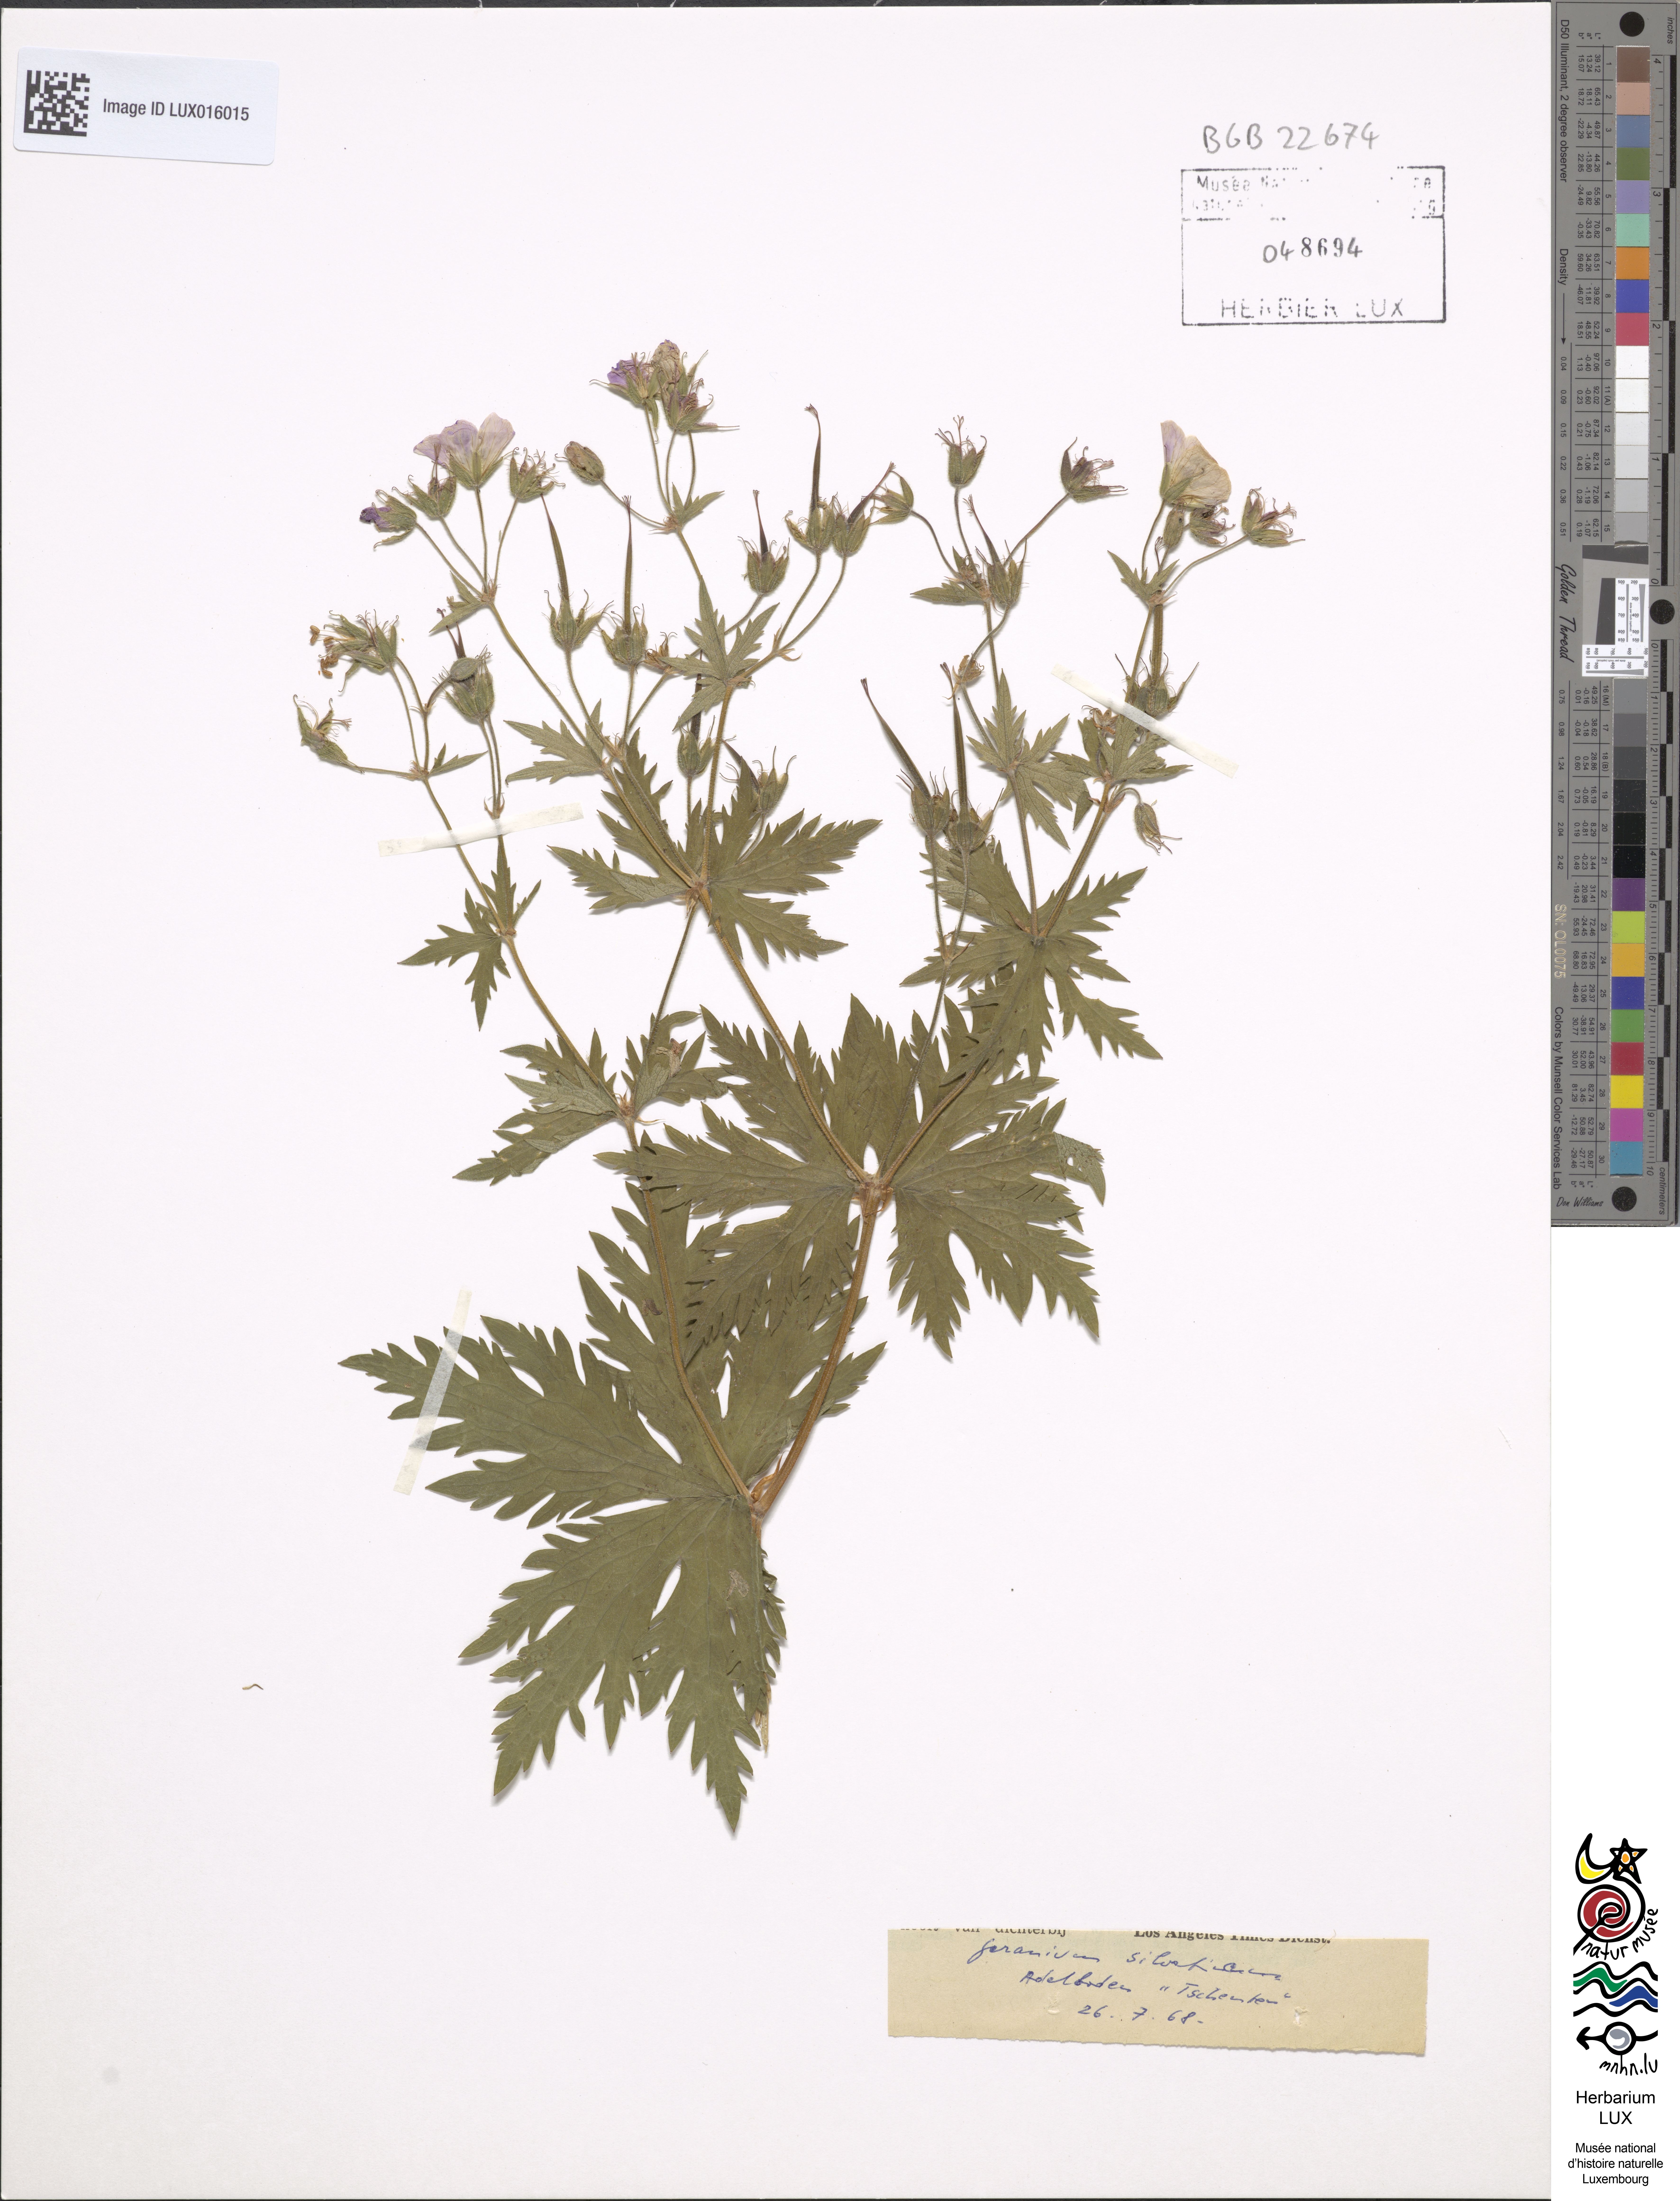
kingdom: Plantae
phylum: Tracheophyta
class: Magnoliopsida
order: Geraniales
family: Geraniaceae
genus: Geranium
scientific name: Geranium sylvaticum
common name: Wood crane's-bill
